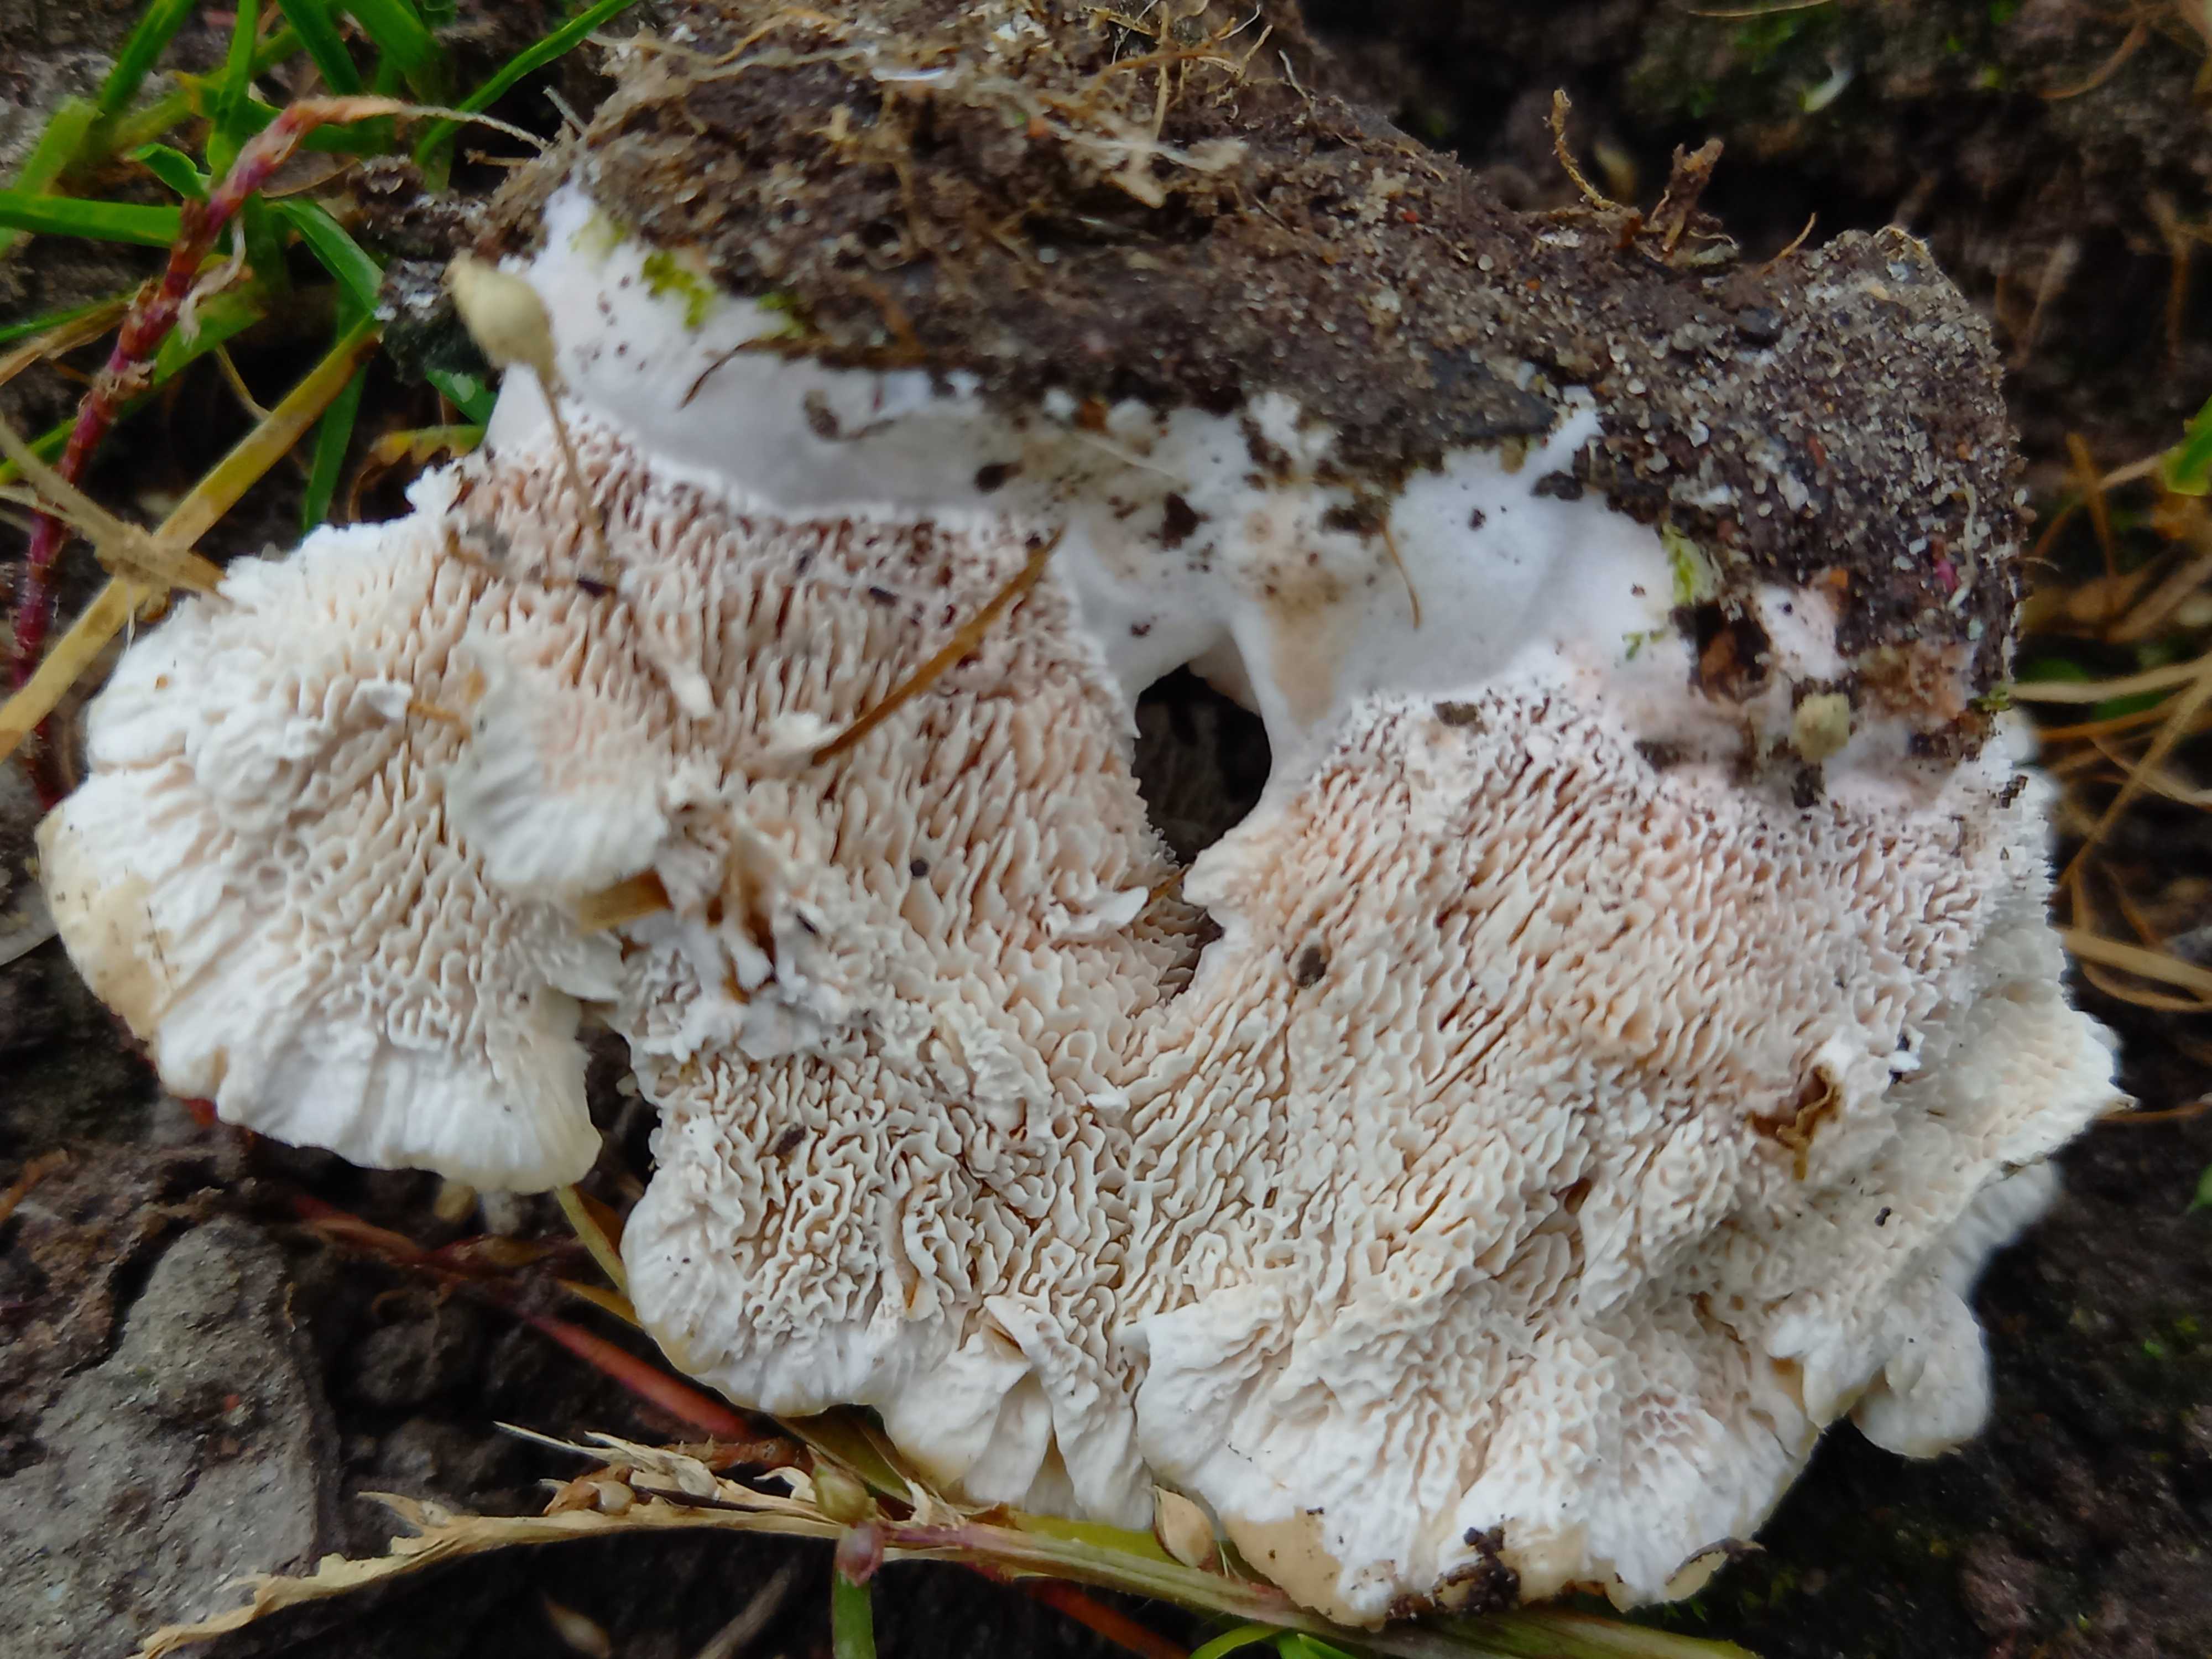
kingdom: Fungi
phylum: Basidiomycota
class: Agaricomycetes
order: Polyporales
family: Podoscyphaceae
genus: Abortiporus
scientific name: Abortiporus biennis
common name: rødmende pjalteporesvamp
